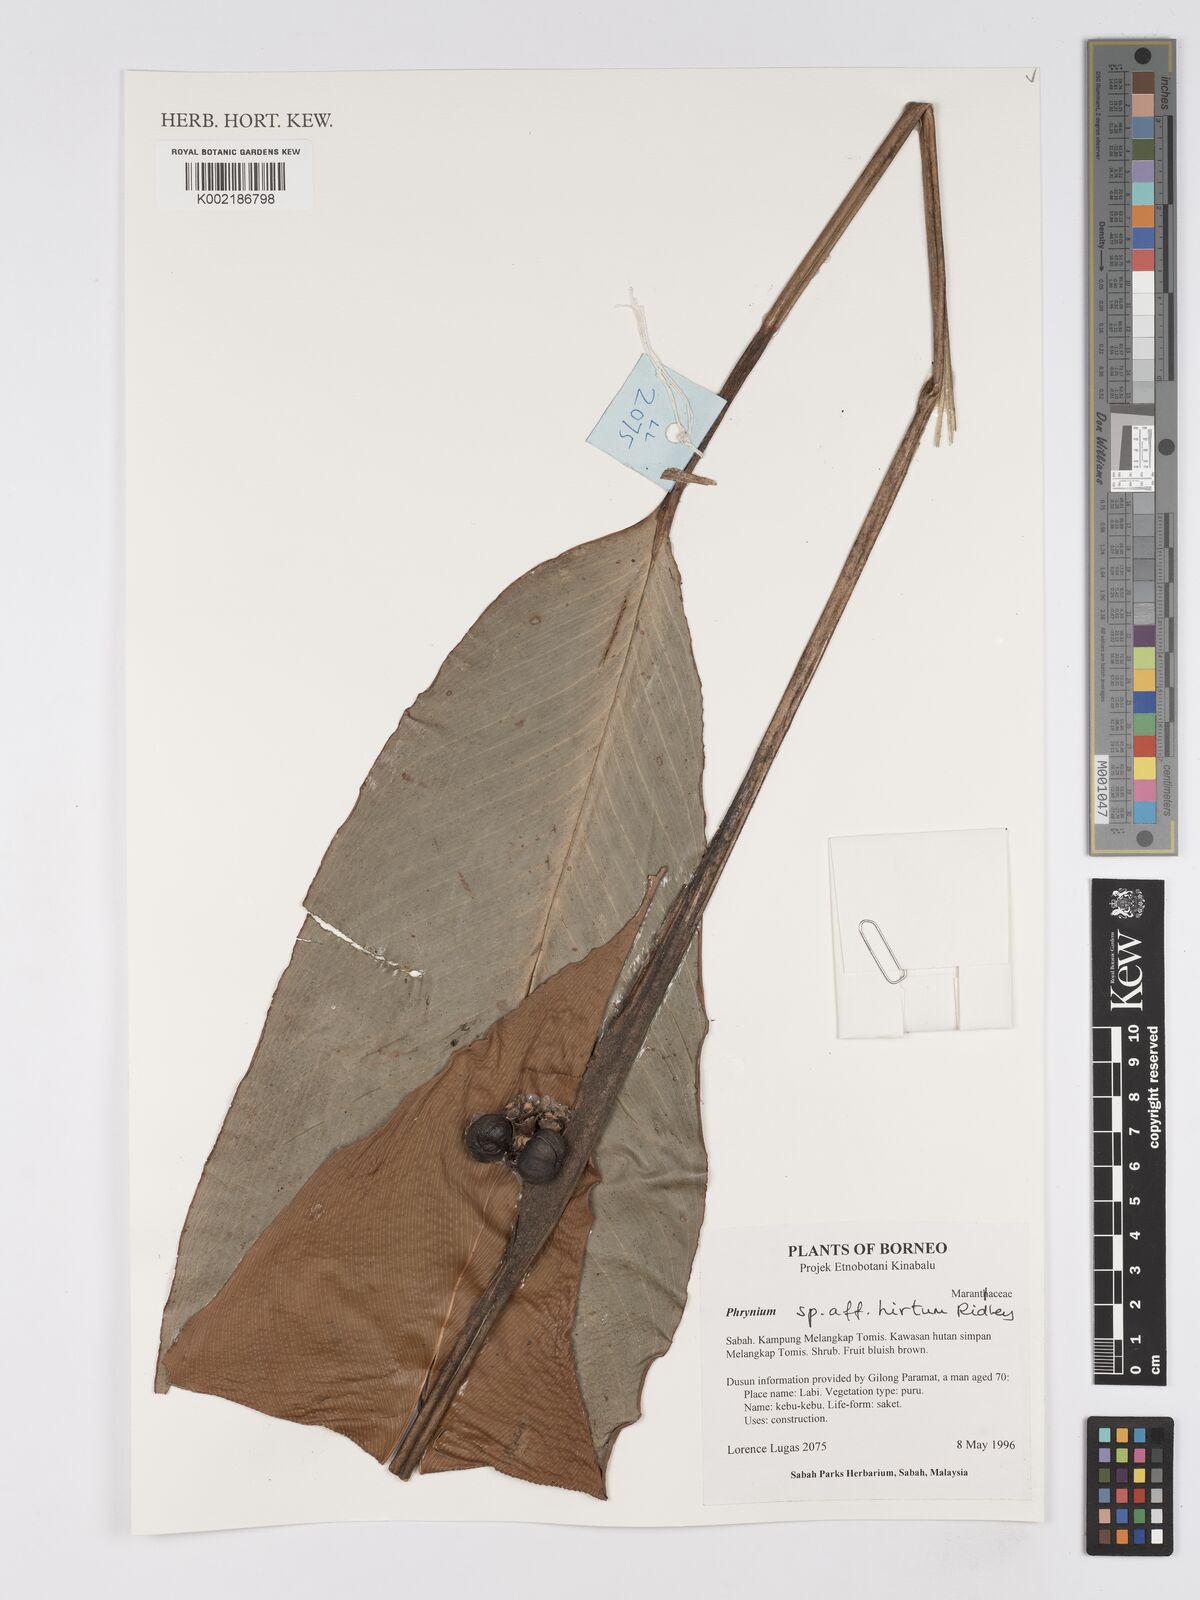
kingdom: Plantae
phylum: Tracheophyta
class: Liliopsida
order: Zingiberales
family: Marantaceae
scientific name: Marantaceae
